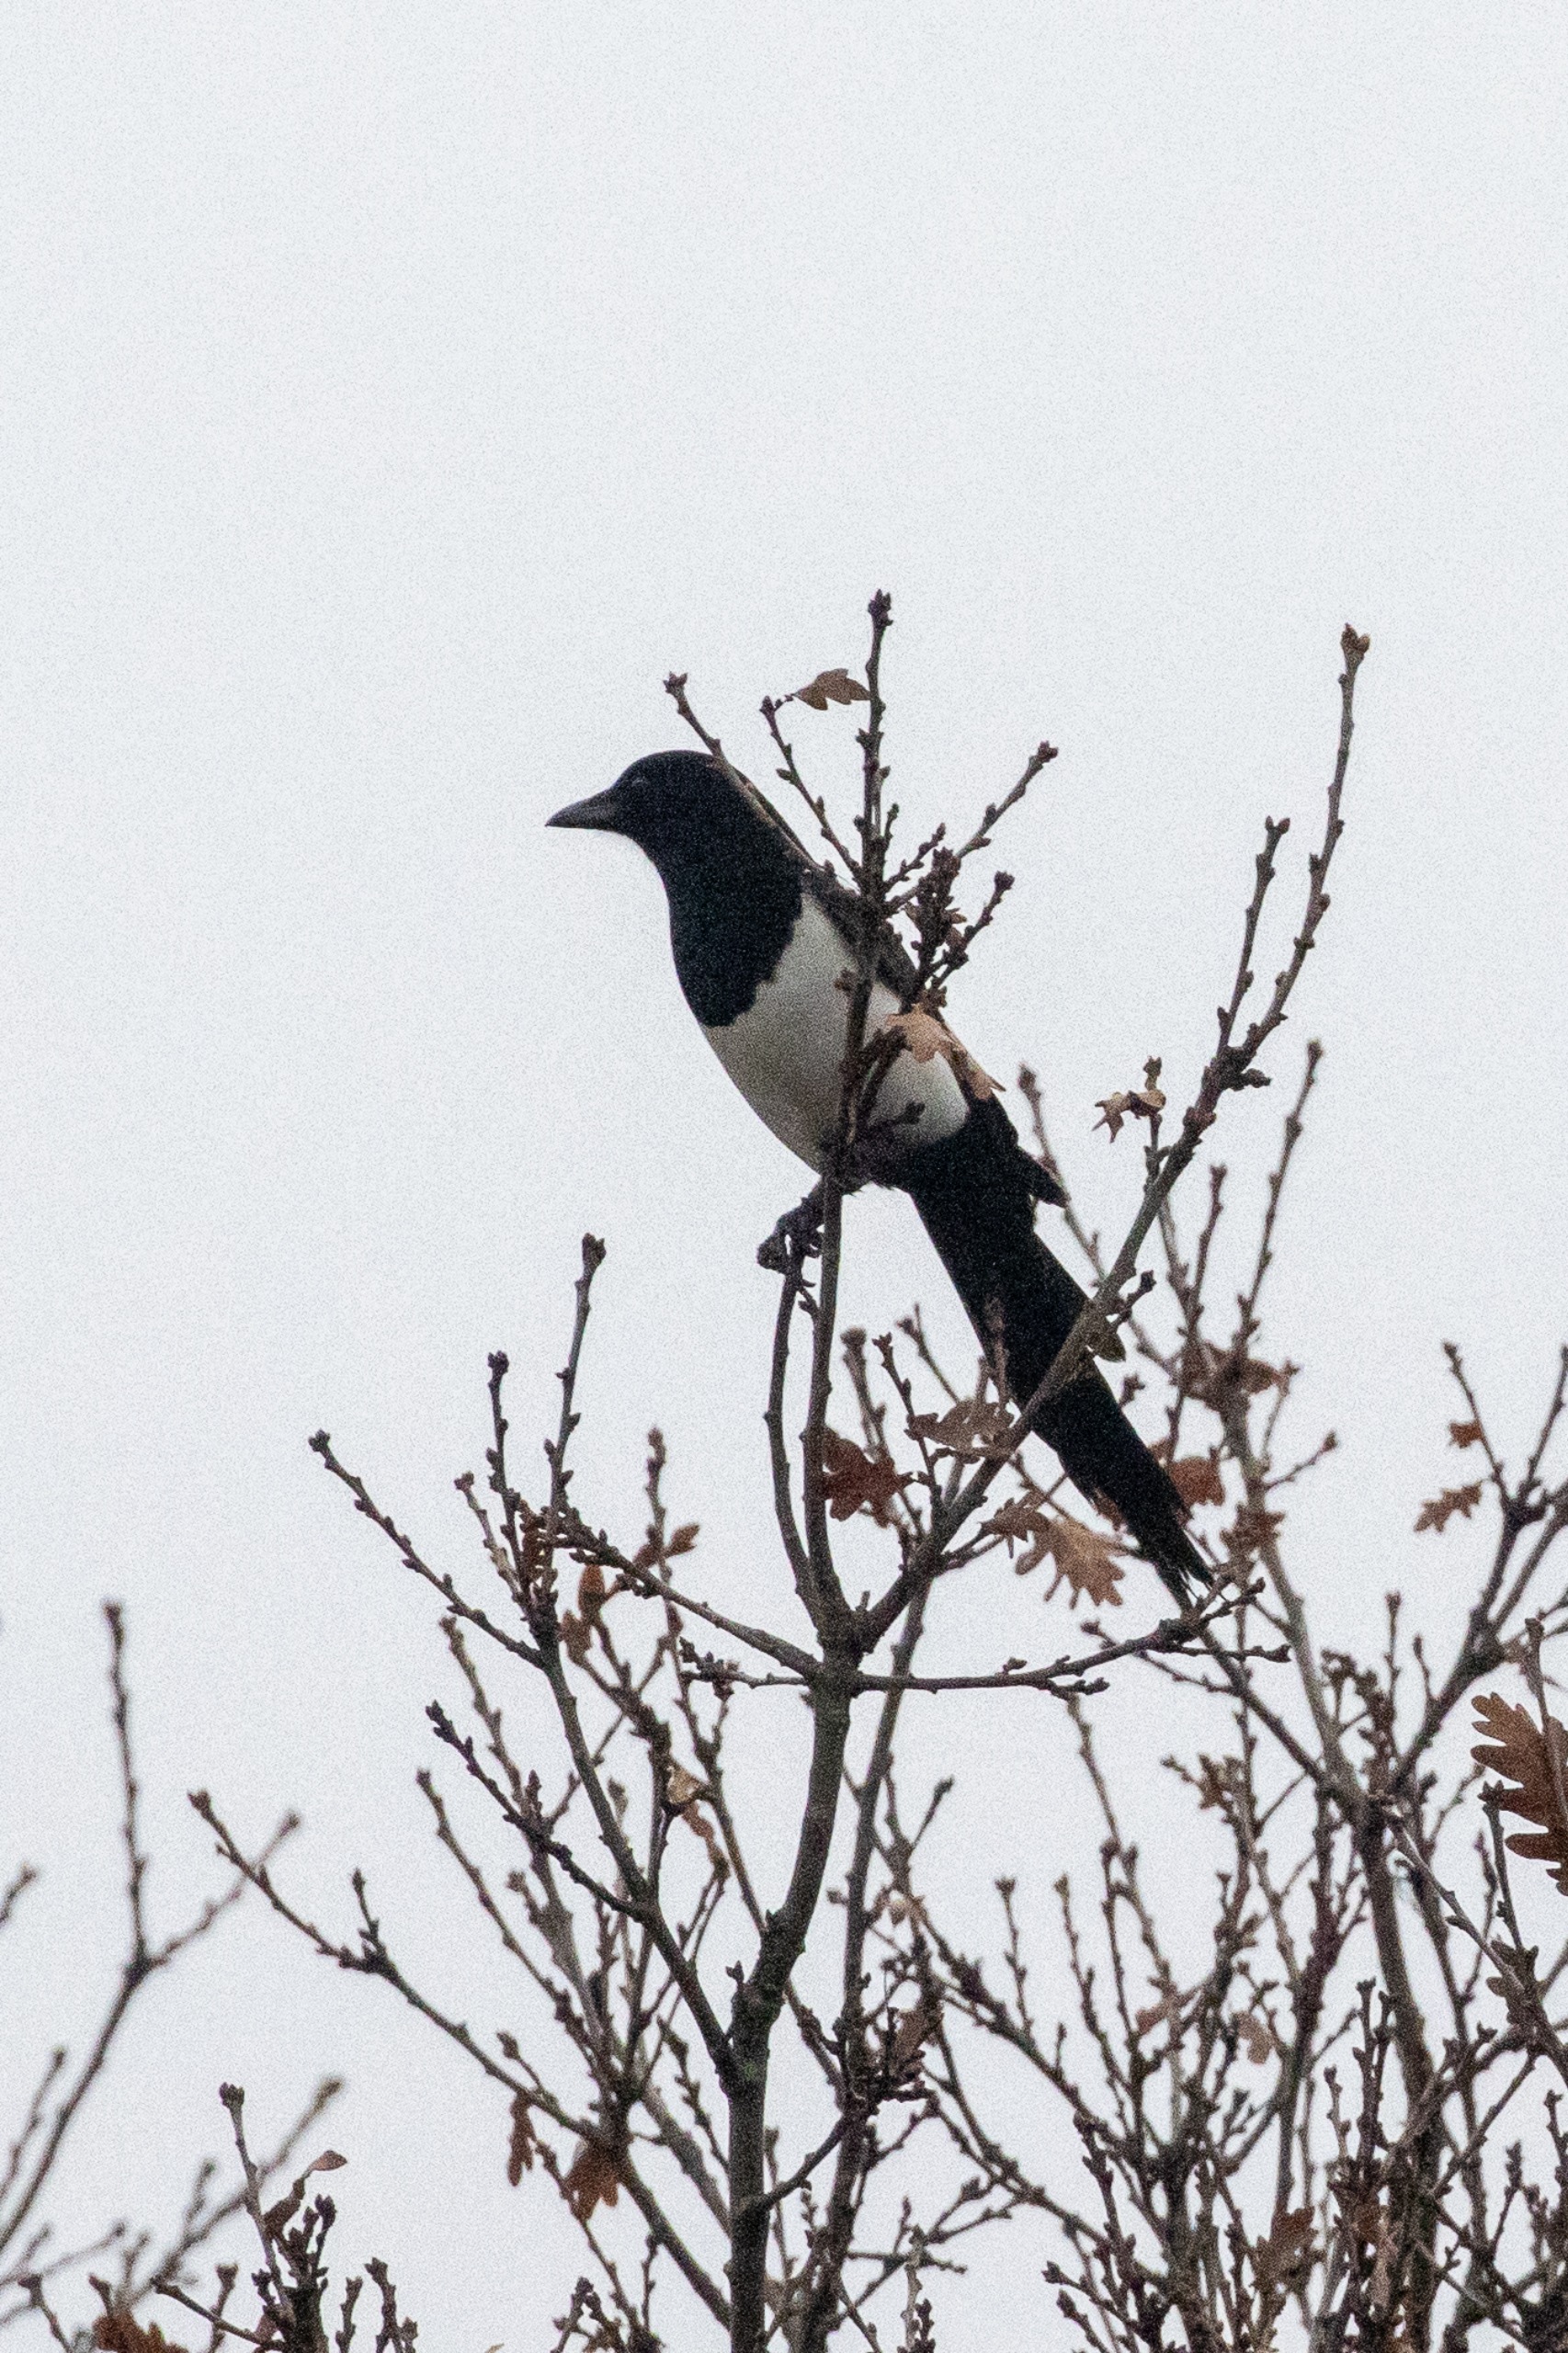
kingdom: Animalia
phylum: Chordata
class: Aves
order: Passeriformes
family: Corvidae
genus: Pica
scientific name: Pica pica
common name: Husskade
